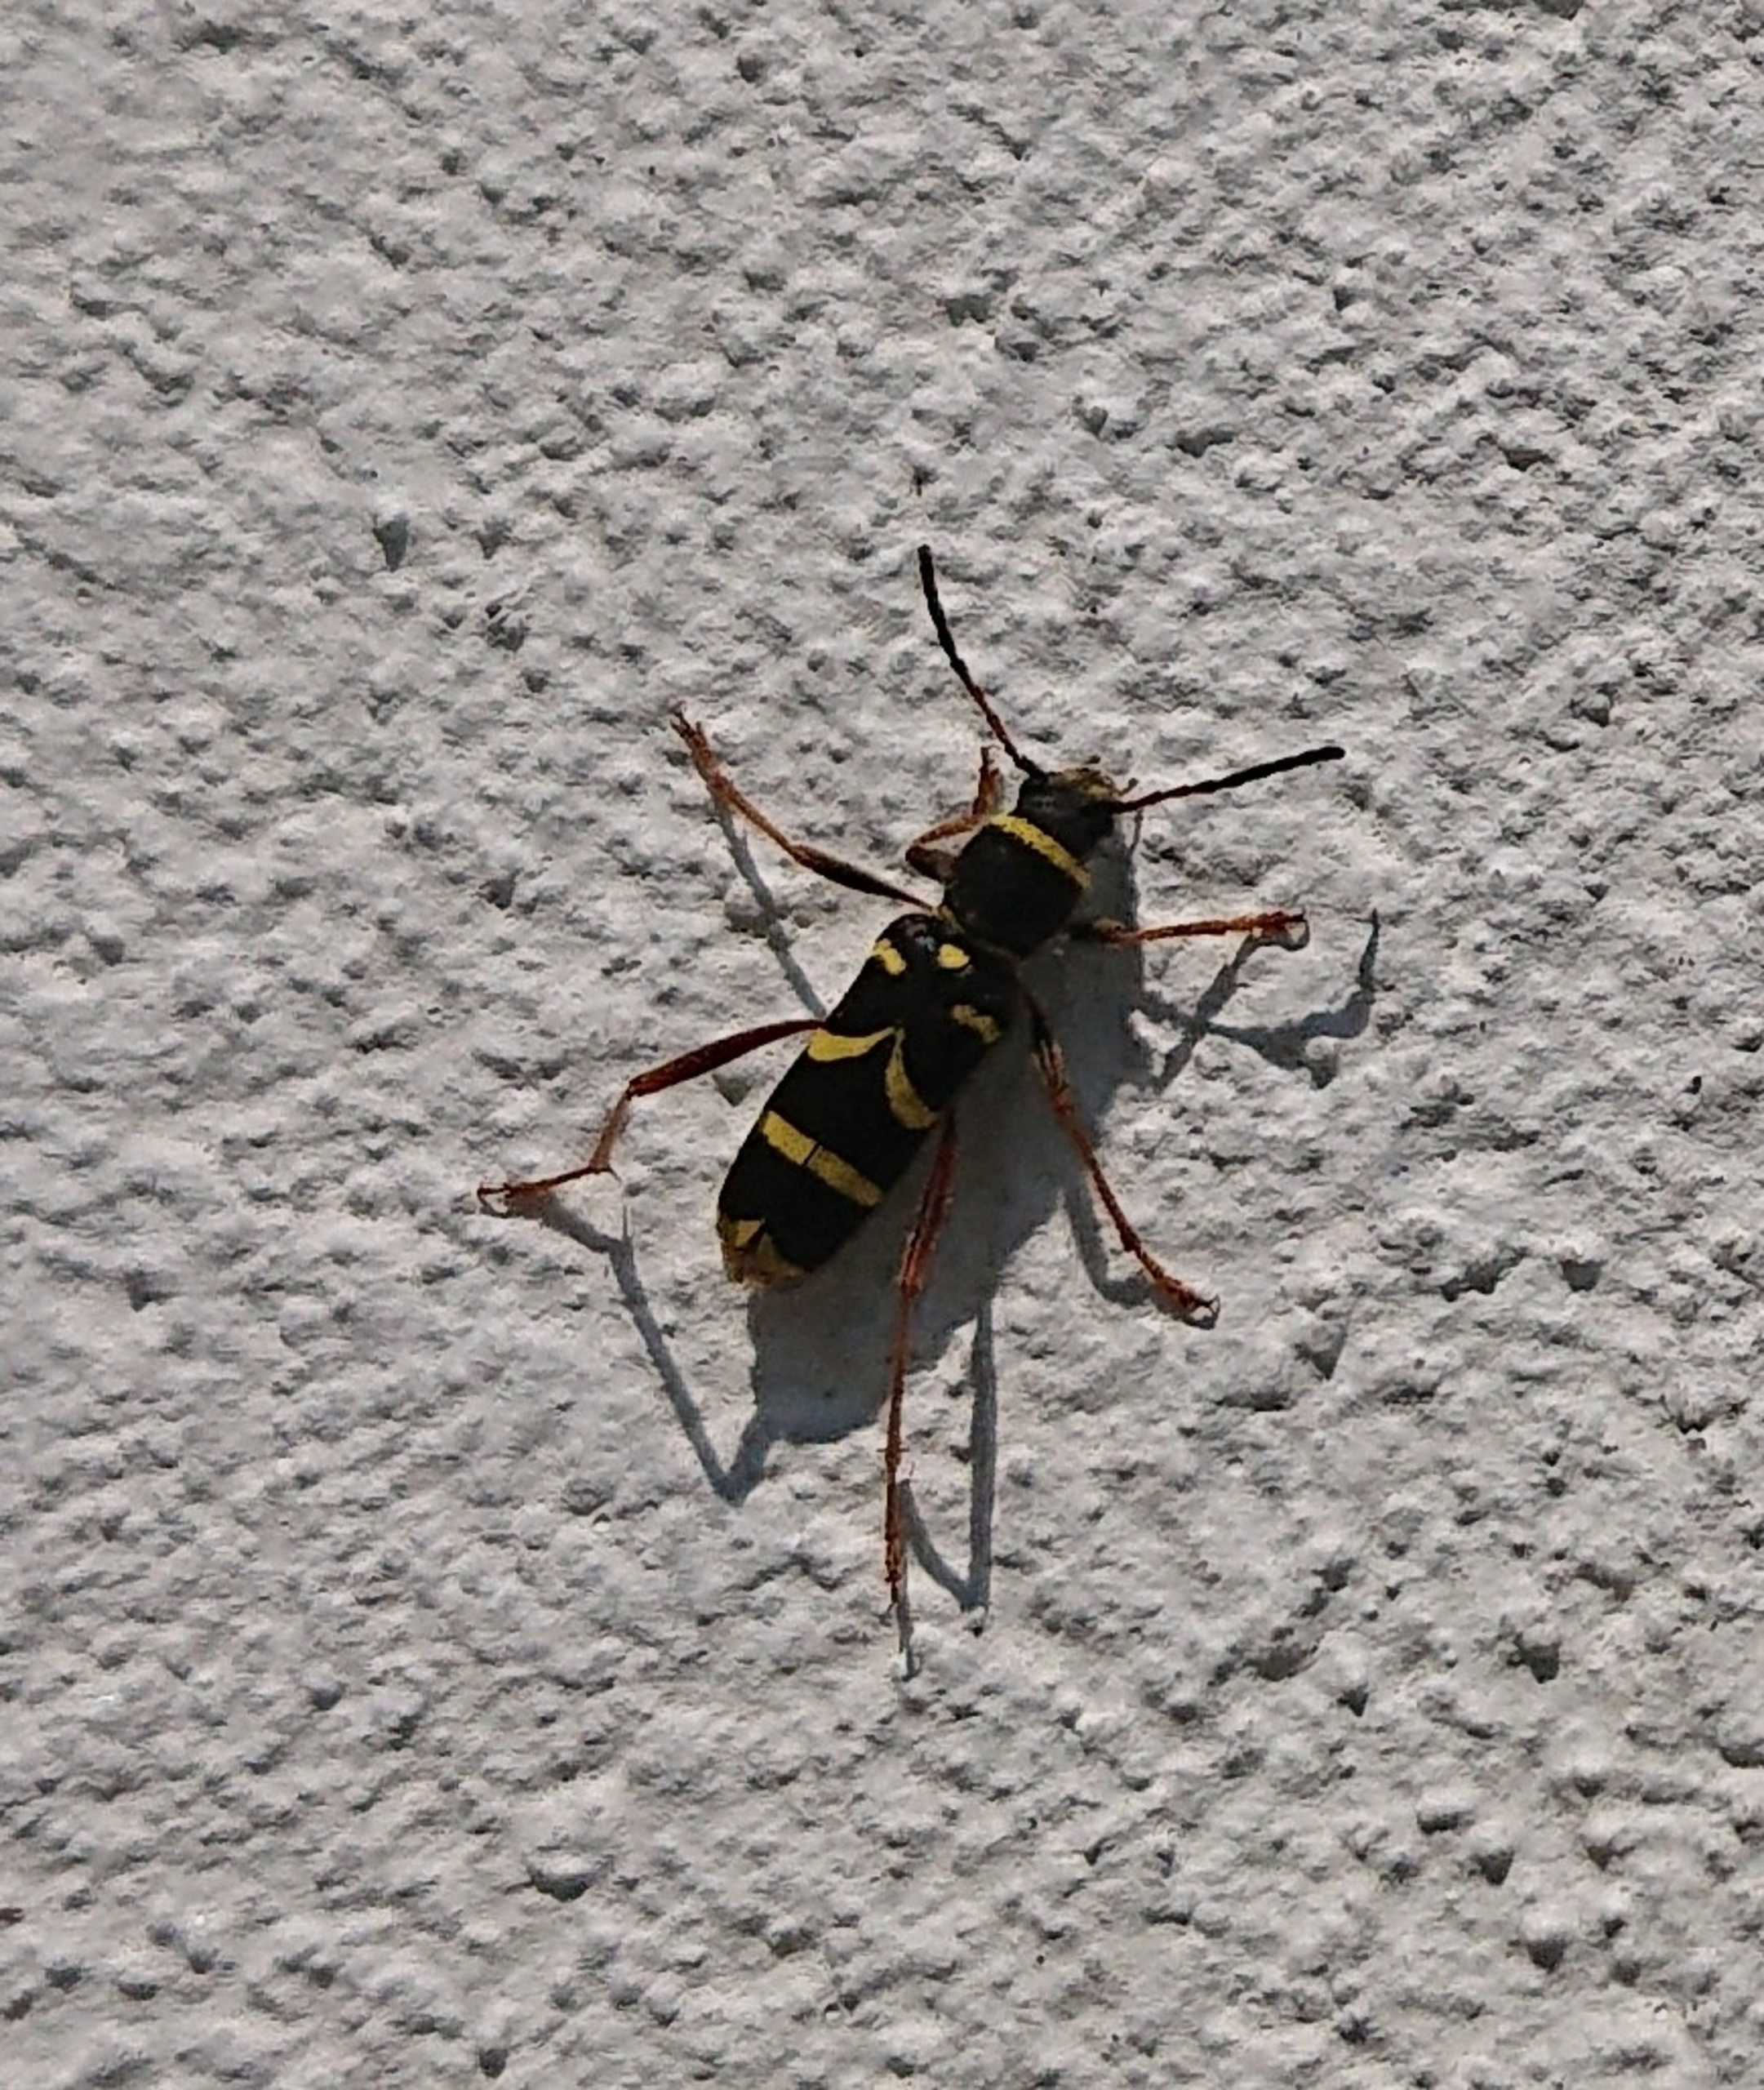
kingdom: Animalia
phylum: Arthropoda
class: Insecta
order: Coleoptera
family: Cerambycidae
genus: Clytus
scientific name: Clytus arietis
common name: Lille hvepsebuk
